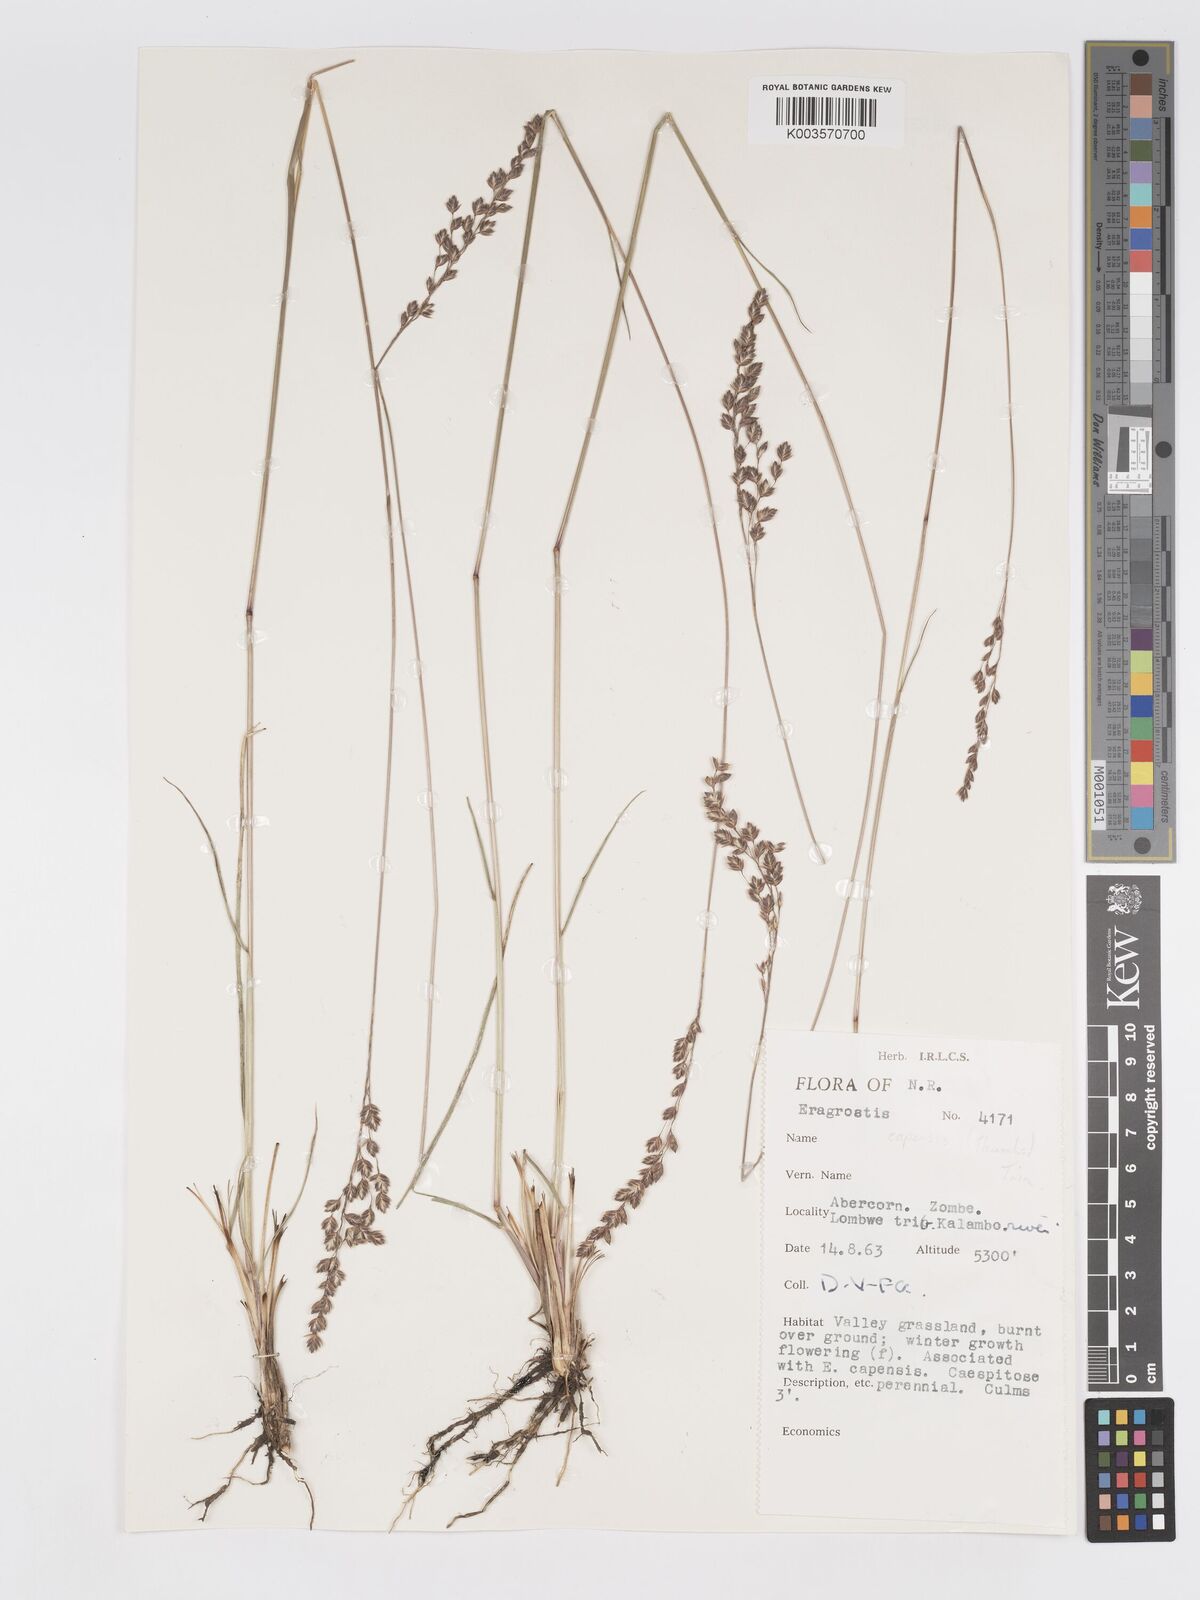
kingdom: Plantae
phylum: Tracheophyta
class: Liliopsida
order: Poales
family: Poaceae
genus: Eragrostis
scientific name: Eragrostis capensis
